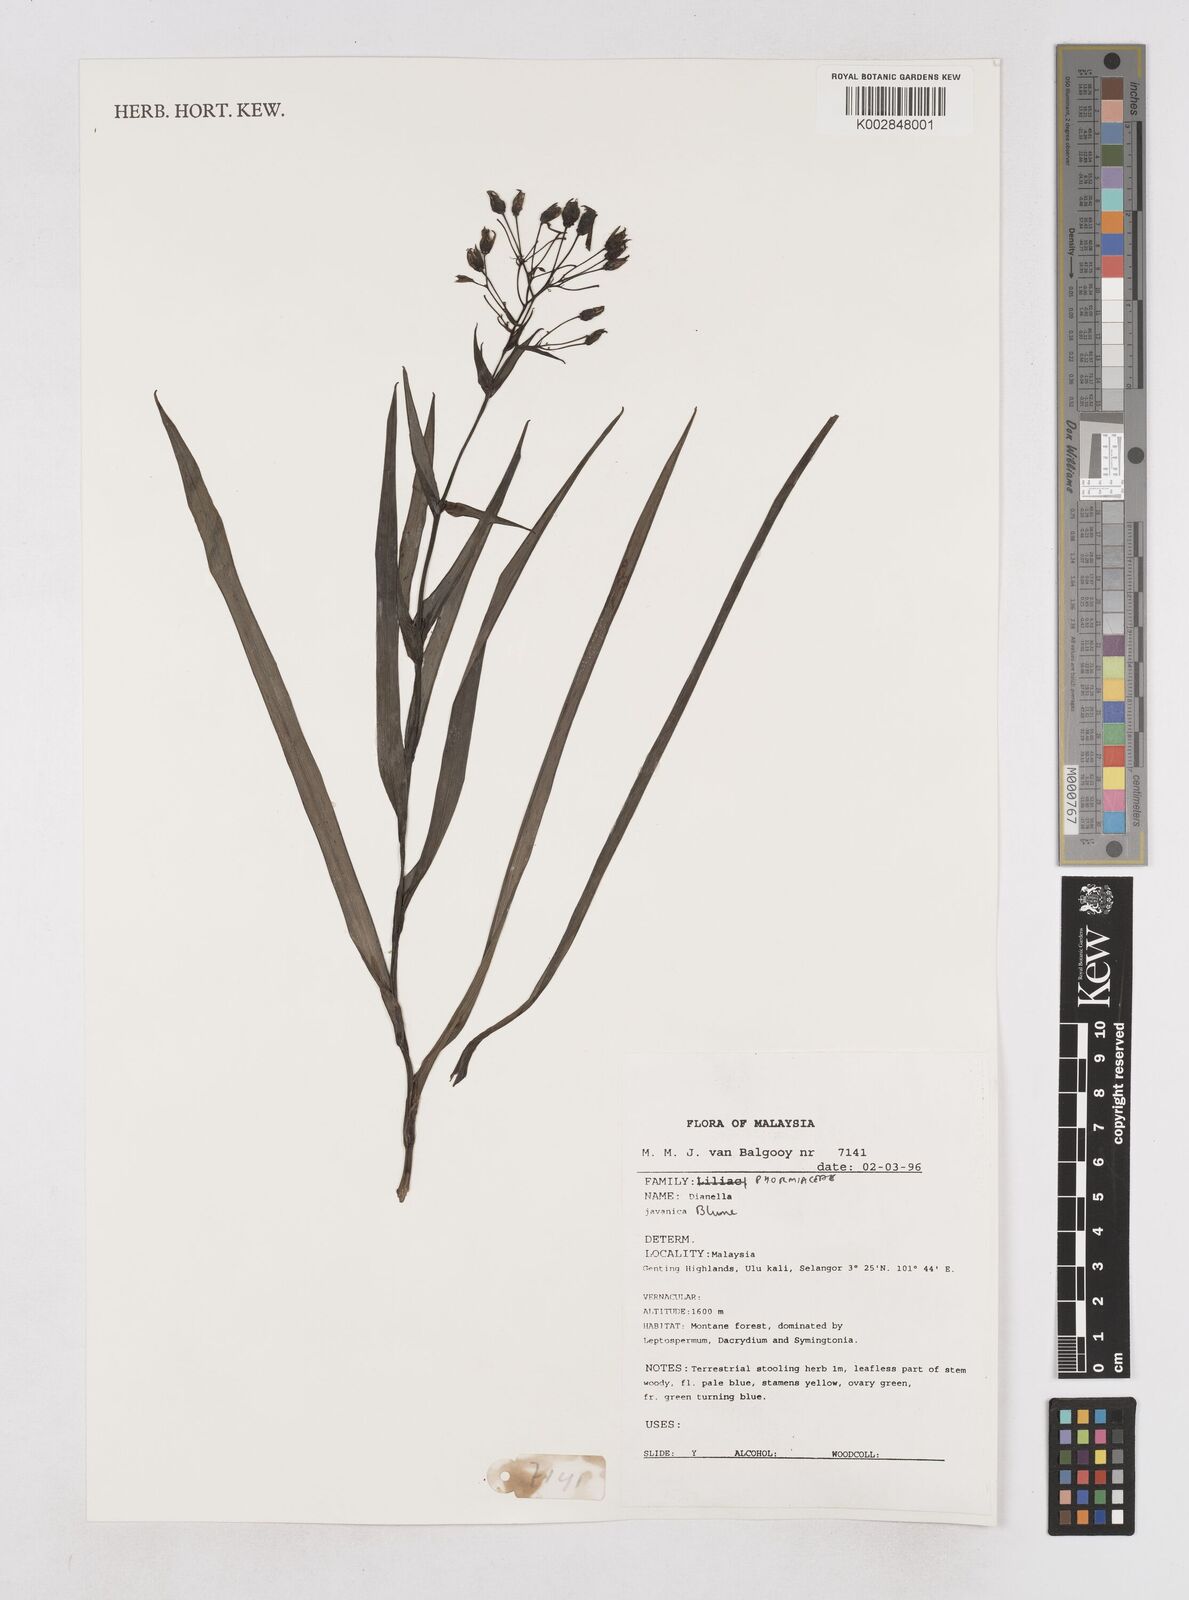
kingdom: Plantae
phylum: Tracheophyta
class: Liliopsida
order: Asparagales
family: Asphodelaceae
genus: Rhuacophila
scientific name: Rhuacophila javanica
